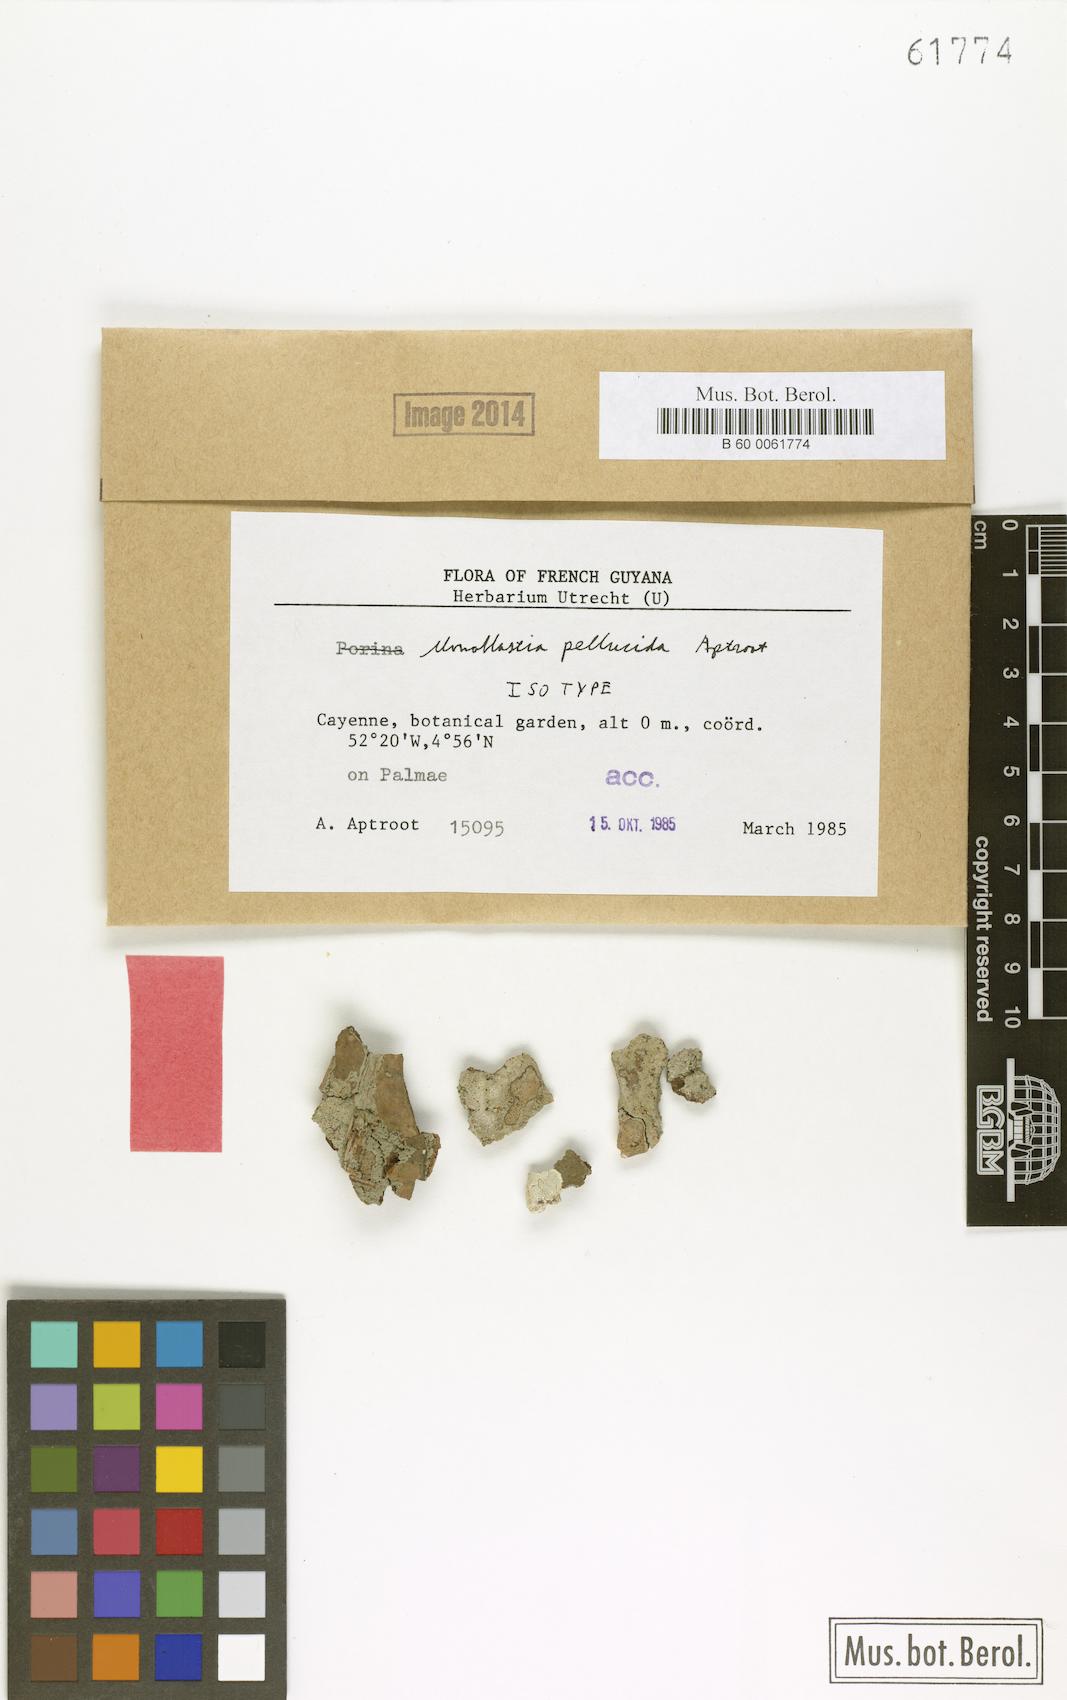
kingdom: Fungi
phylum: Ascomycota
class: Dothideomycetes
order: Monoblastiales
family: Monoblastiaceae
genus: Monoblastia
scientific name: Monoblastia pellucida
